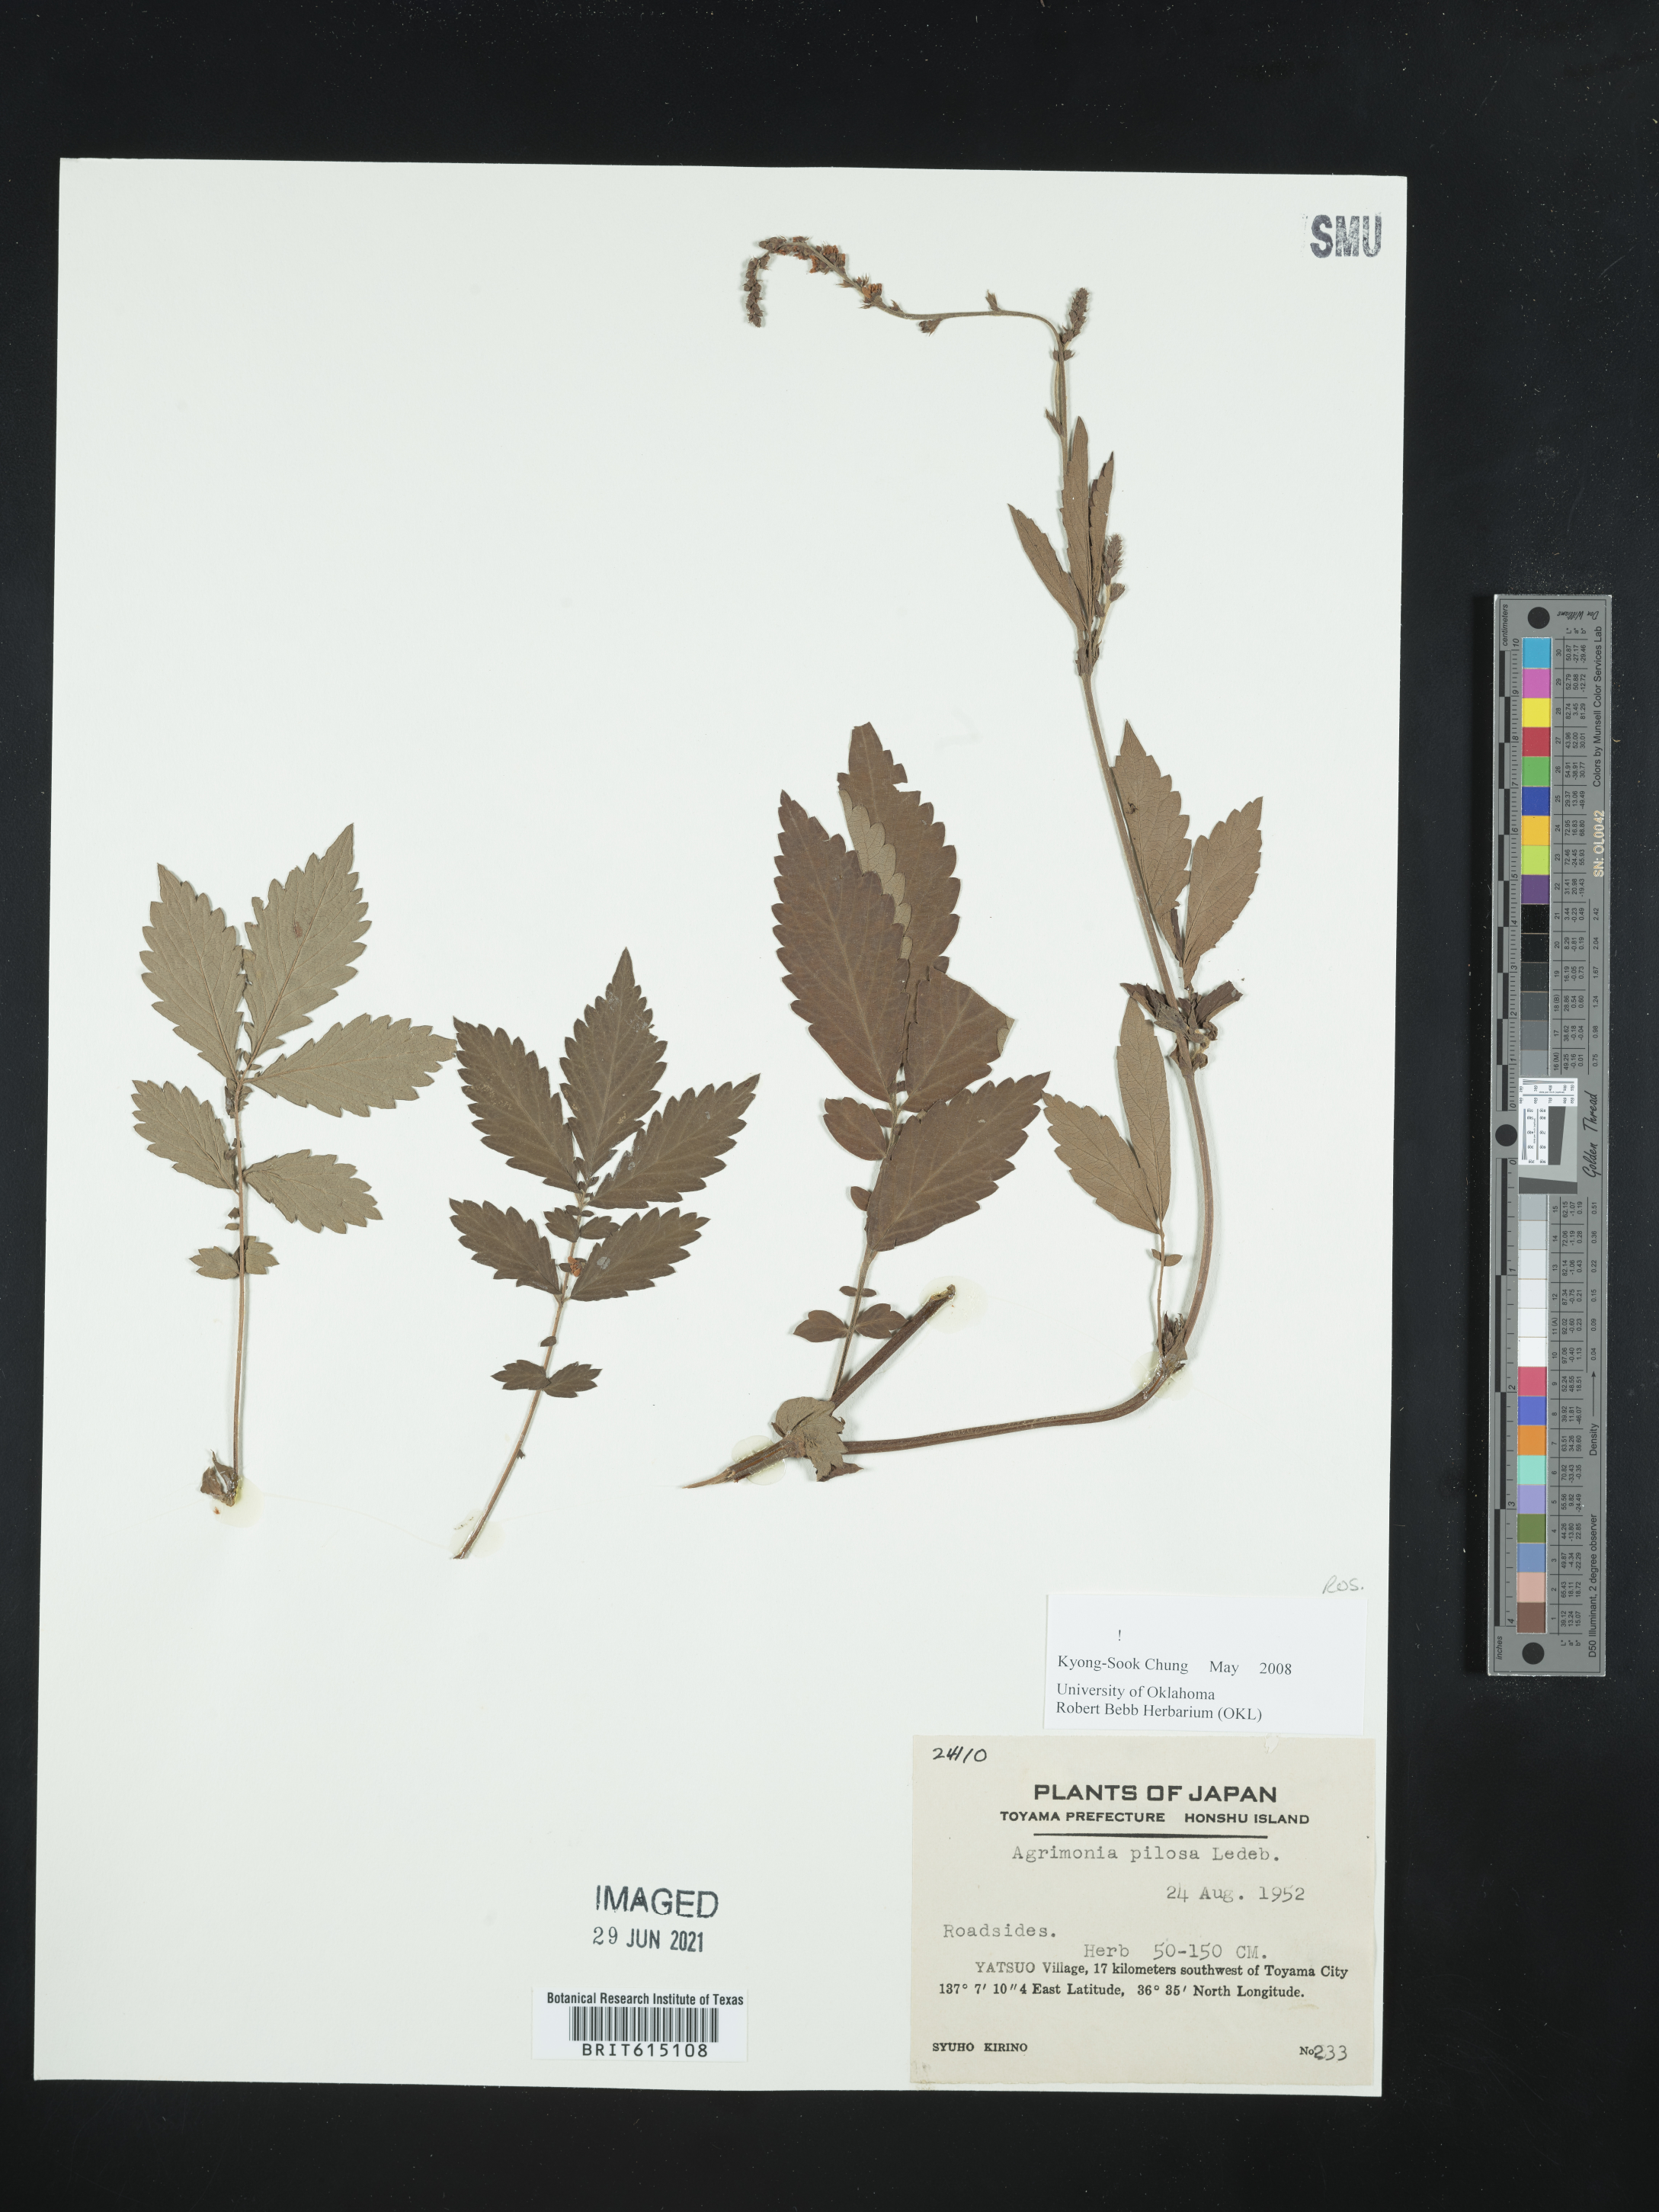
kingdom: Plantae
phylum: Tracheophyta
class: Magnoliopsida
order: Rosales
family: Rosaceae
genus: Agrimonia
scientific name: Agrimonia pilosa
